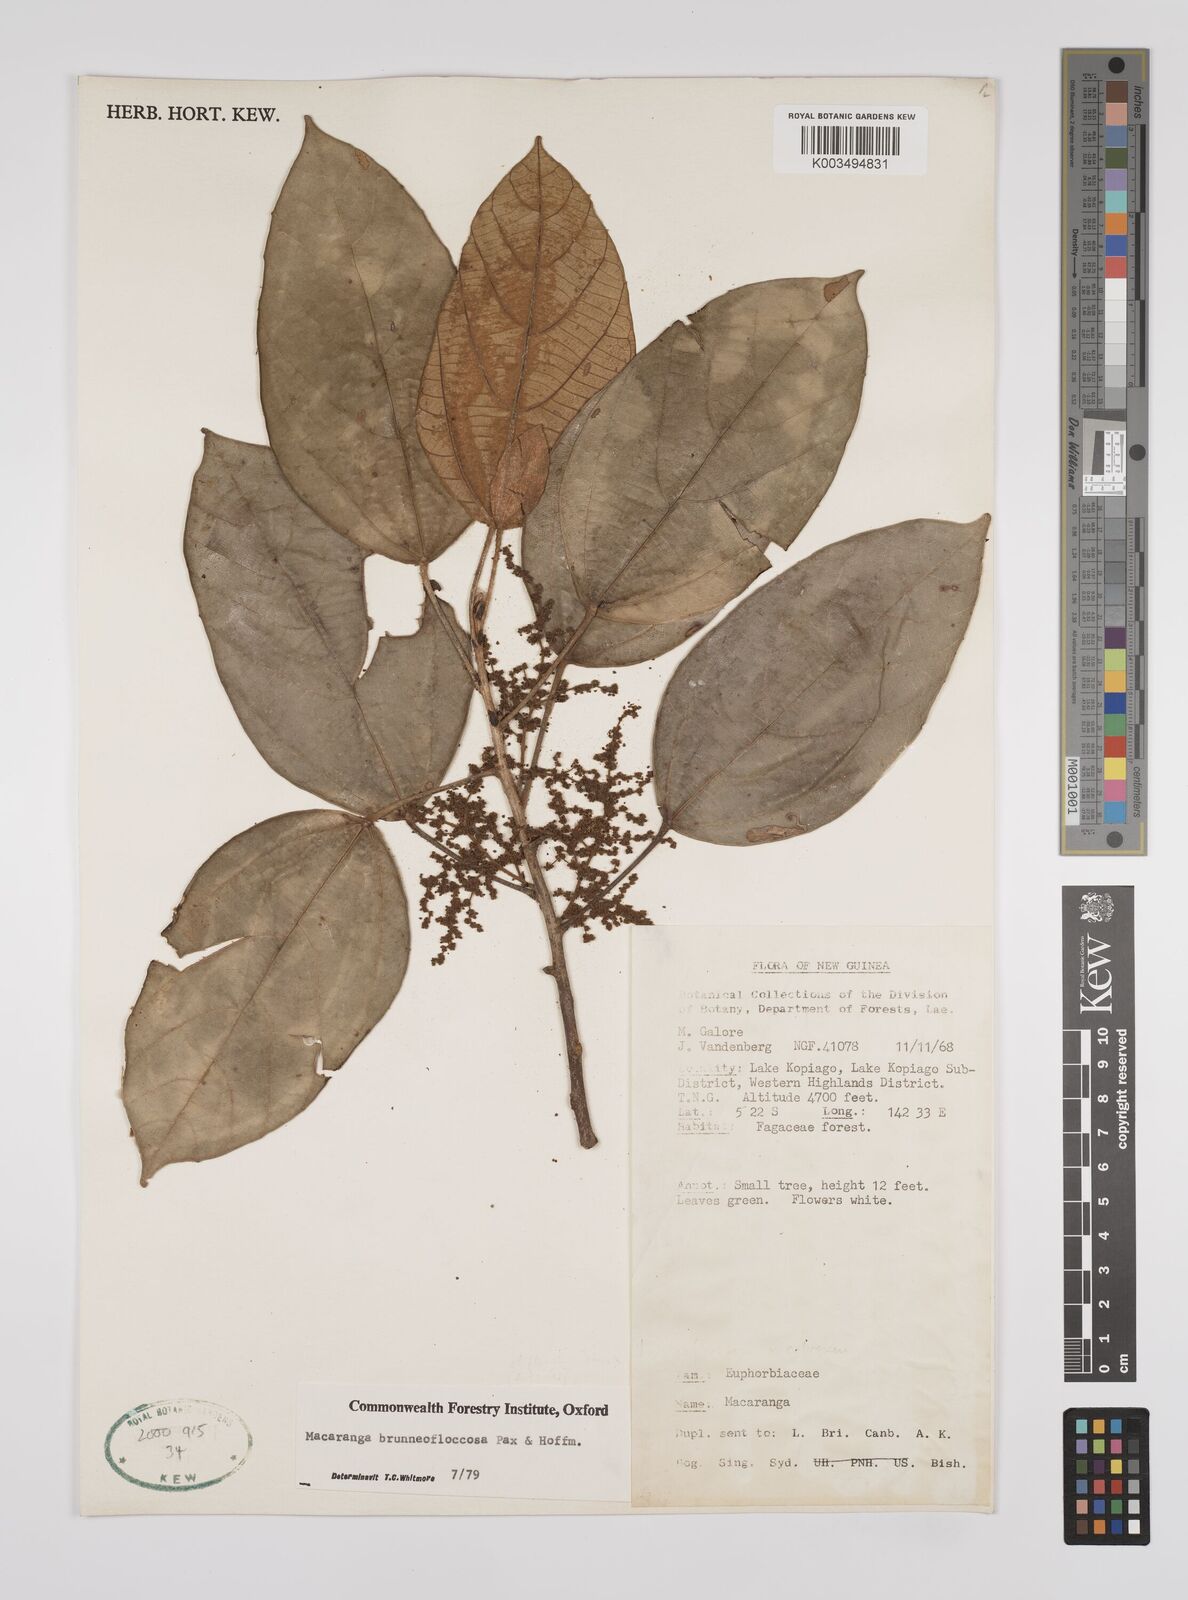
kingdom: Plantae
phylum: Tracheophyta
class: Magnoliopsida
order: Malpighiales
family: Euphorbiaceae
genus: Macaranga
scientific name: Macaranga brunneofloccosa
